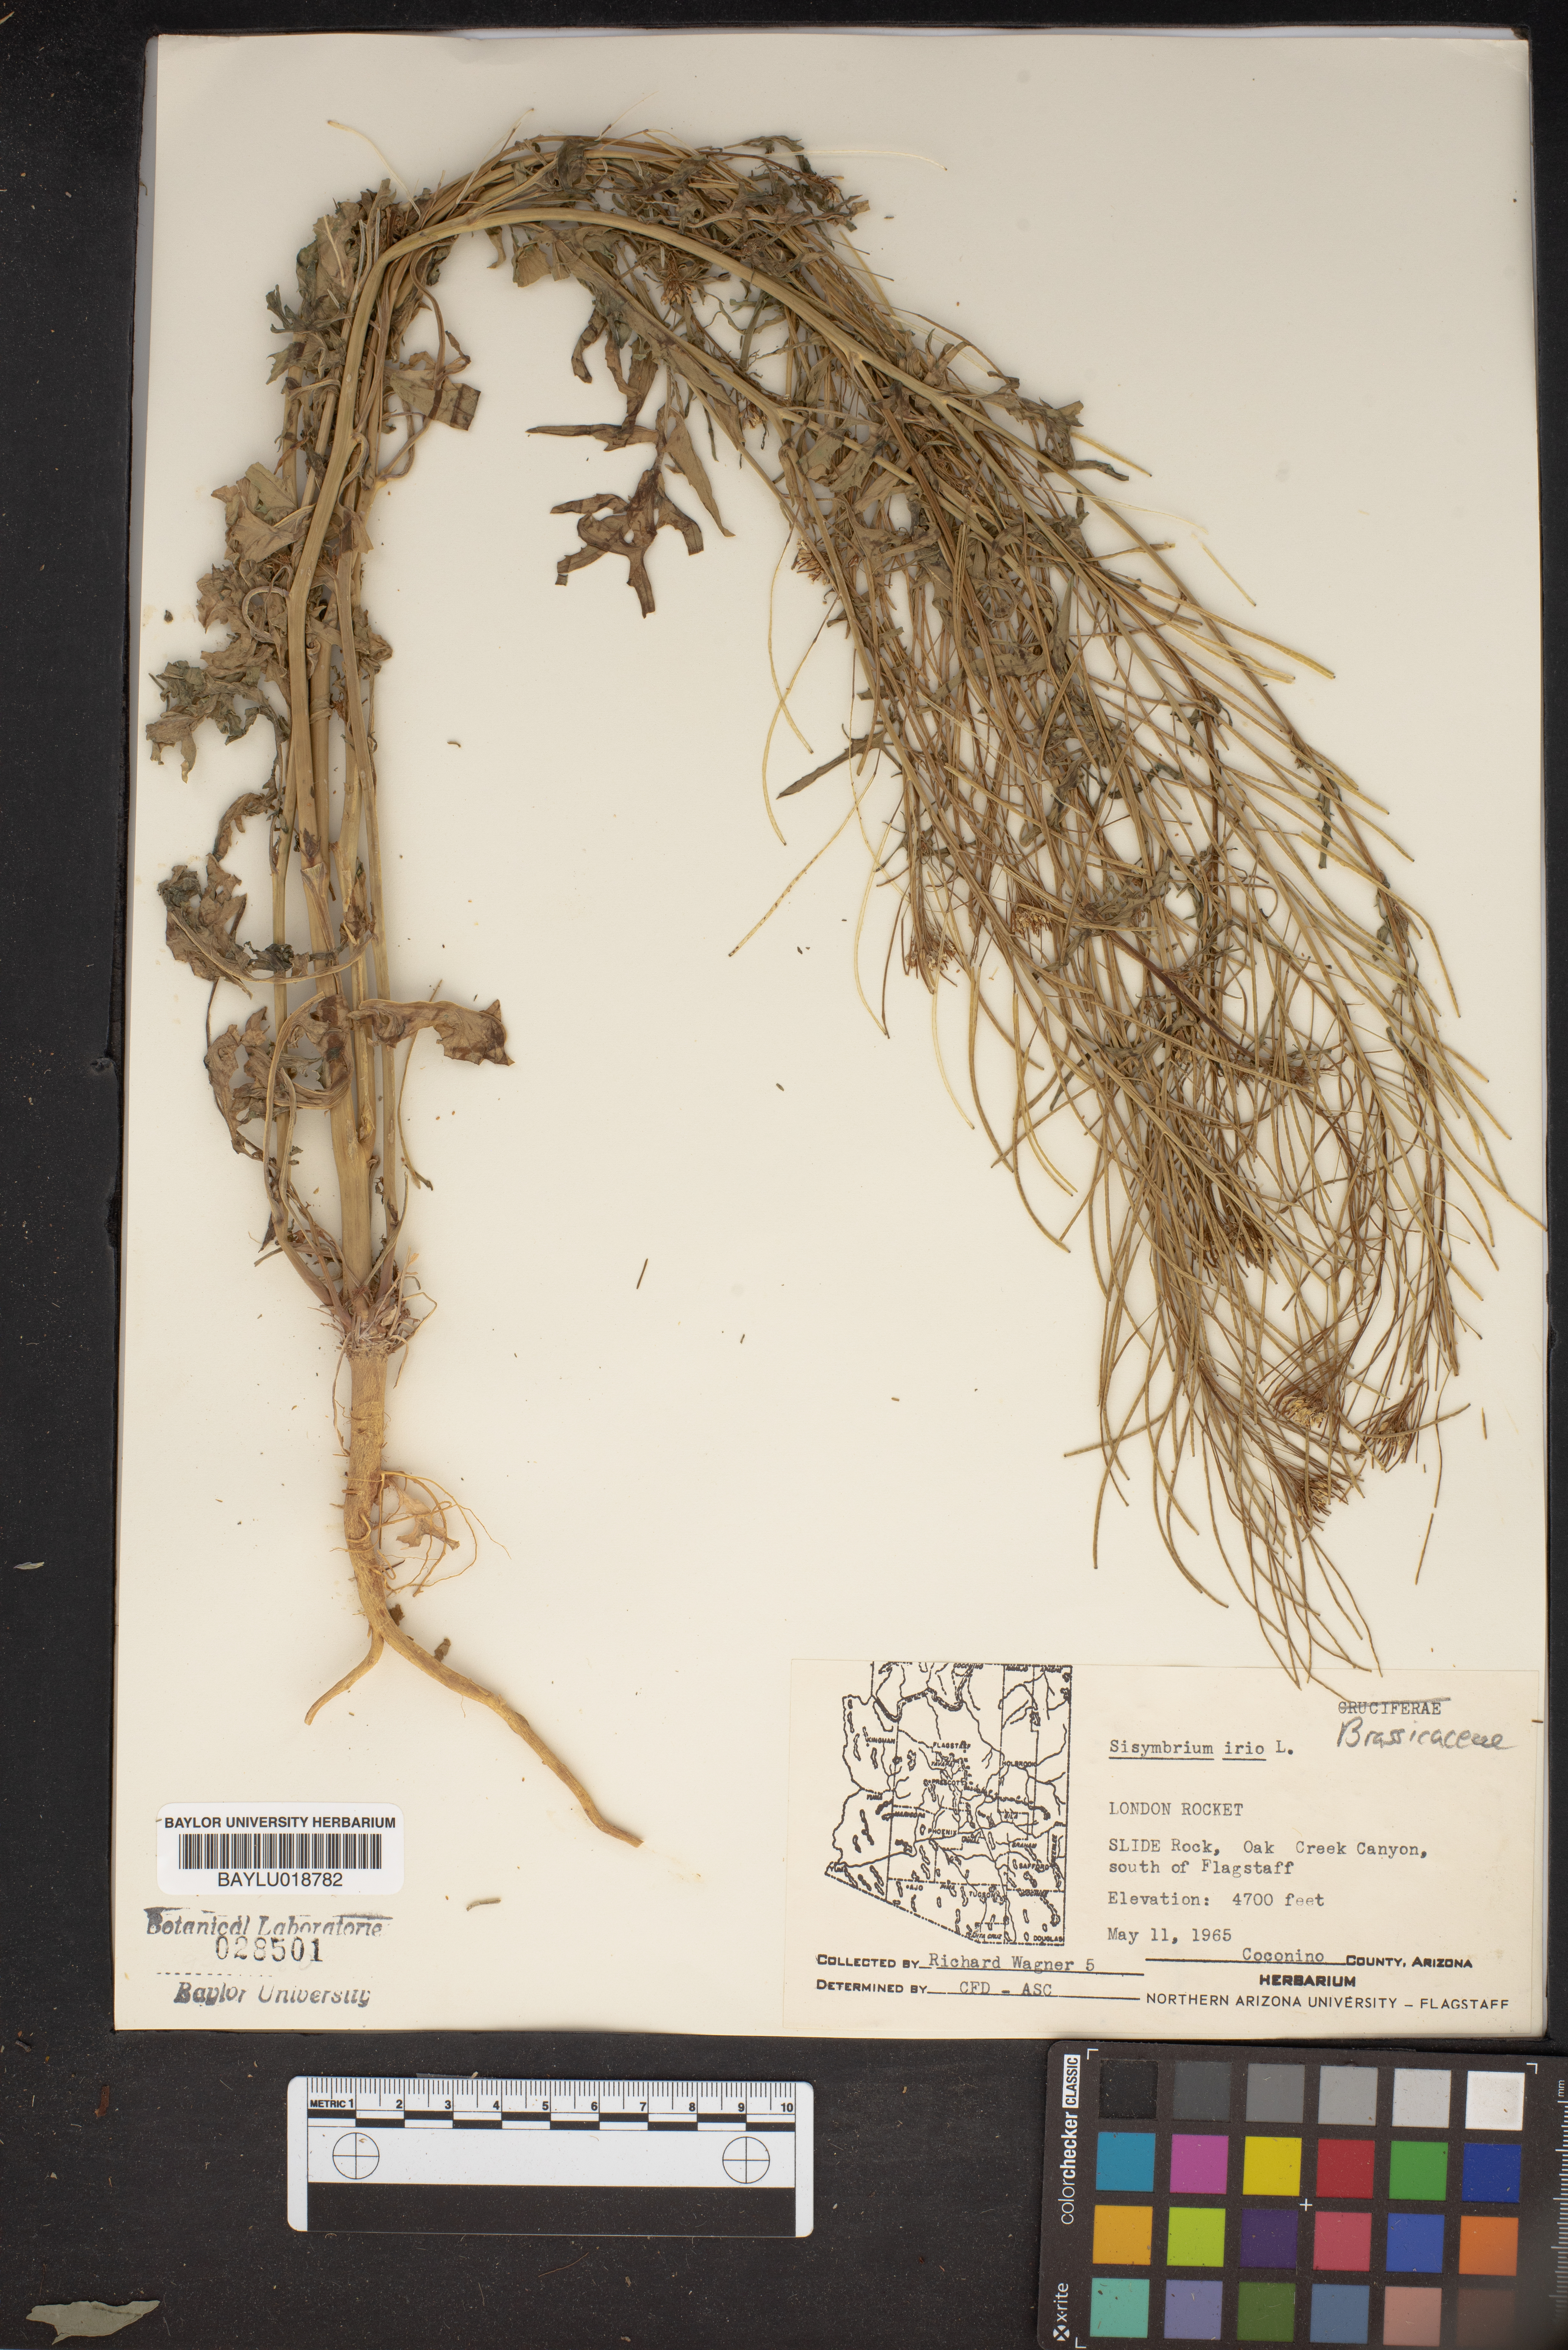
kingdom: Plantae
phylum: Tracheophyta
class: Magnoliopsida
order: Brassicales
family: Brassicaceae
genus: Sisymbrium
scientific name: Sisymbrium irio
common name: London rocket
